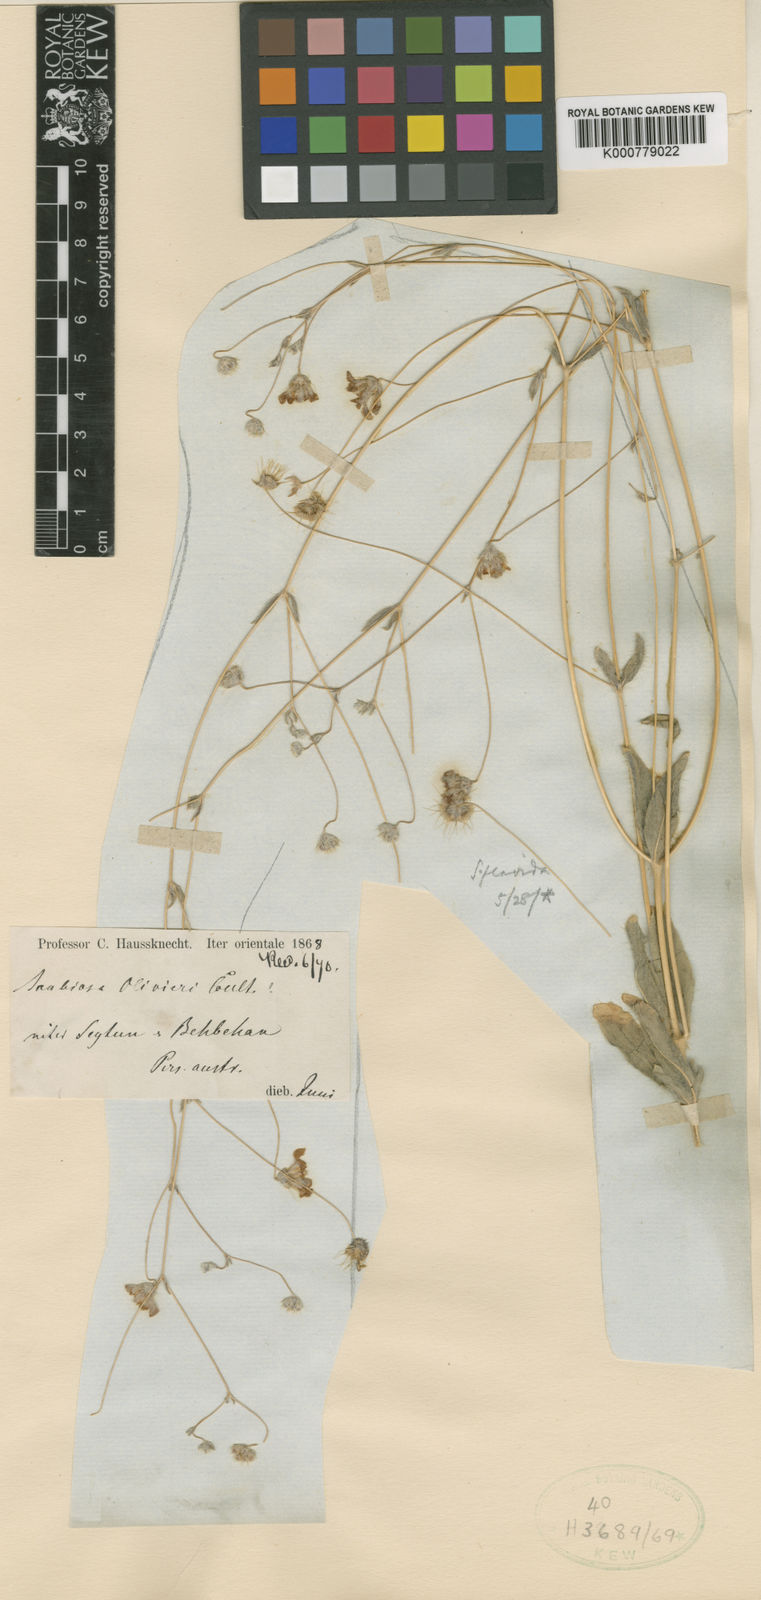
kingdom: Plantae
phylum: Tracheophyta
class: Magnoliopsida
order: Dipsacales
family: Caprifoliaceae
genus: Lomelosia
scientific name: Lomelosia flavida
